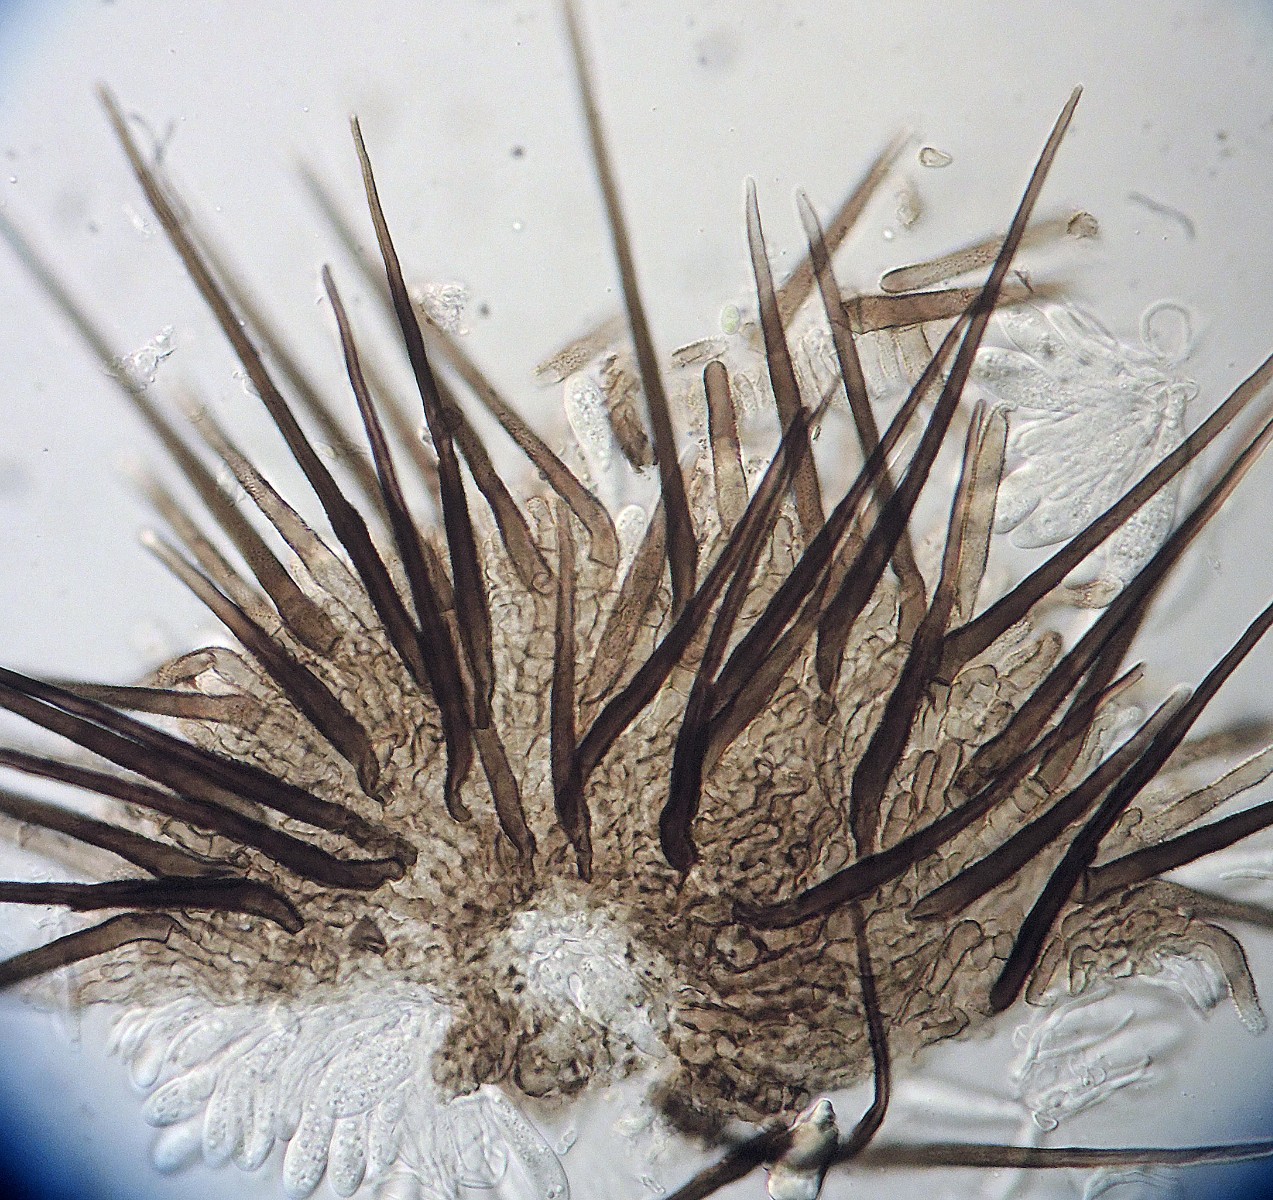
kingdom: Fungi
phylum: Ascomycota
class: Leotiomycetes
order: Helotiales
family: Hyphodiscaceae
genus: Venturiocistella
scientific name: Venturiocistella pini
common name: fyrre-tveskægskive
